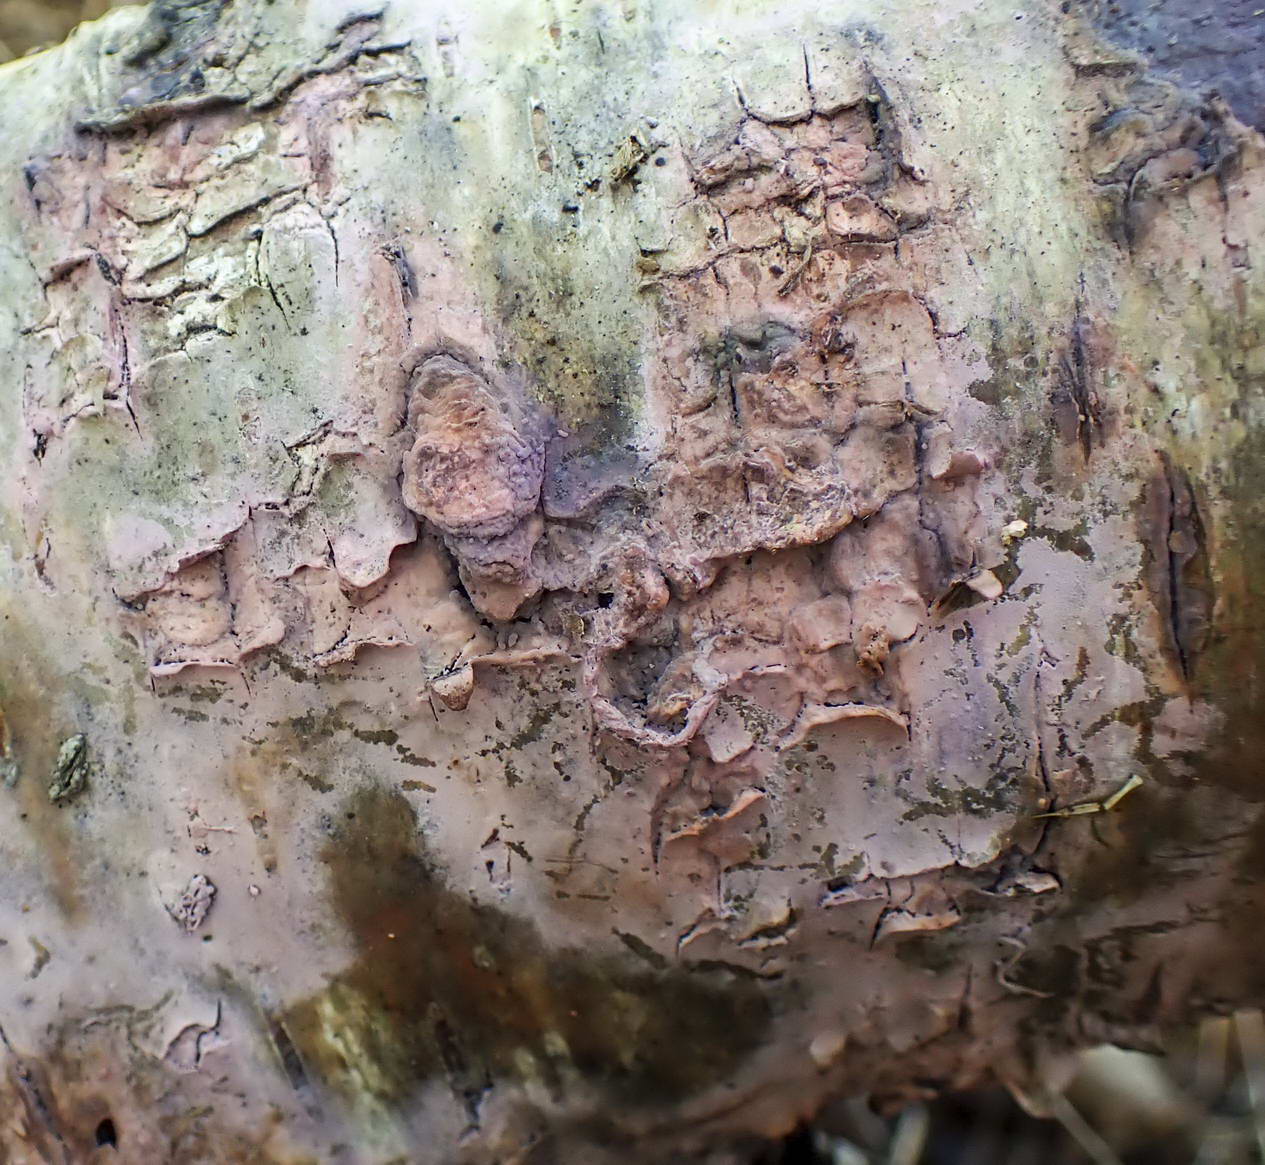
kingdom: Fungi
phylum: Basidiomycota
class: Agaricomycetes
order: Cantharellales
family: Tulasnellaceae
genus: Tulasnella
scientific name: Tulasnella violea
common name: violet ballonhinde
